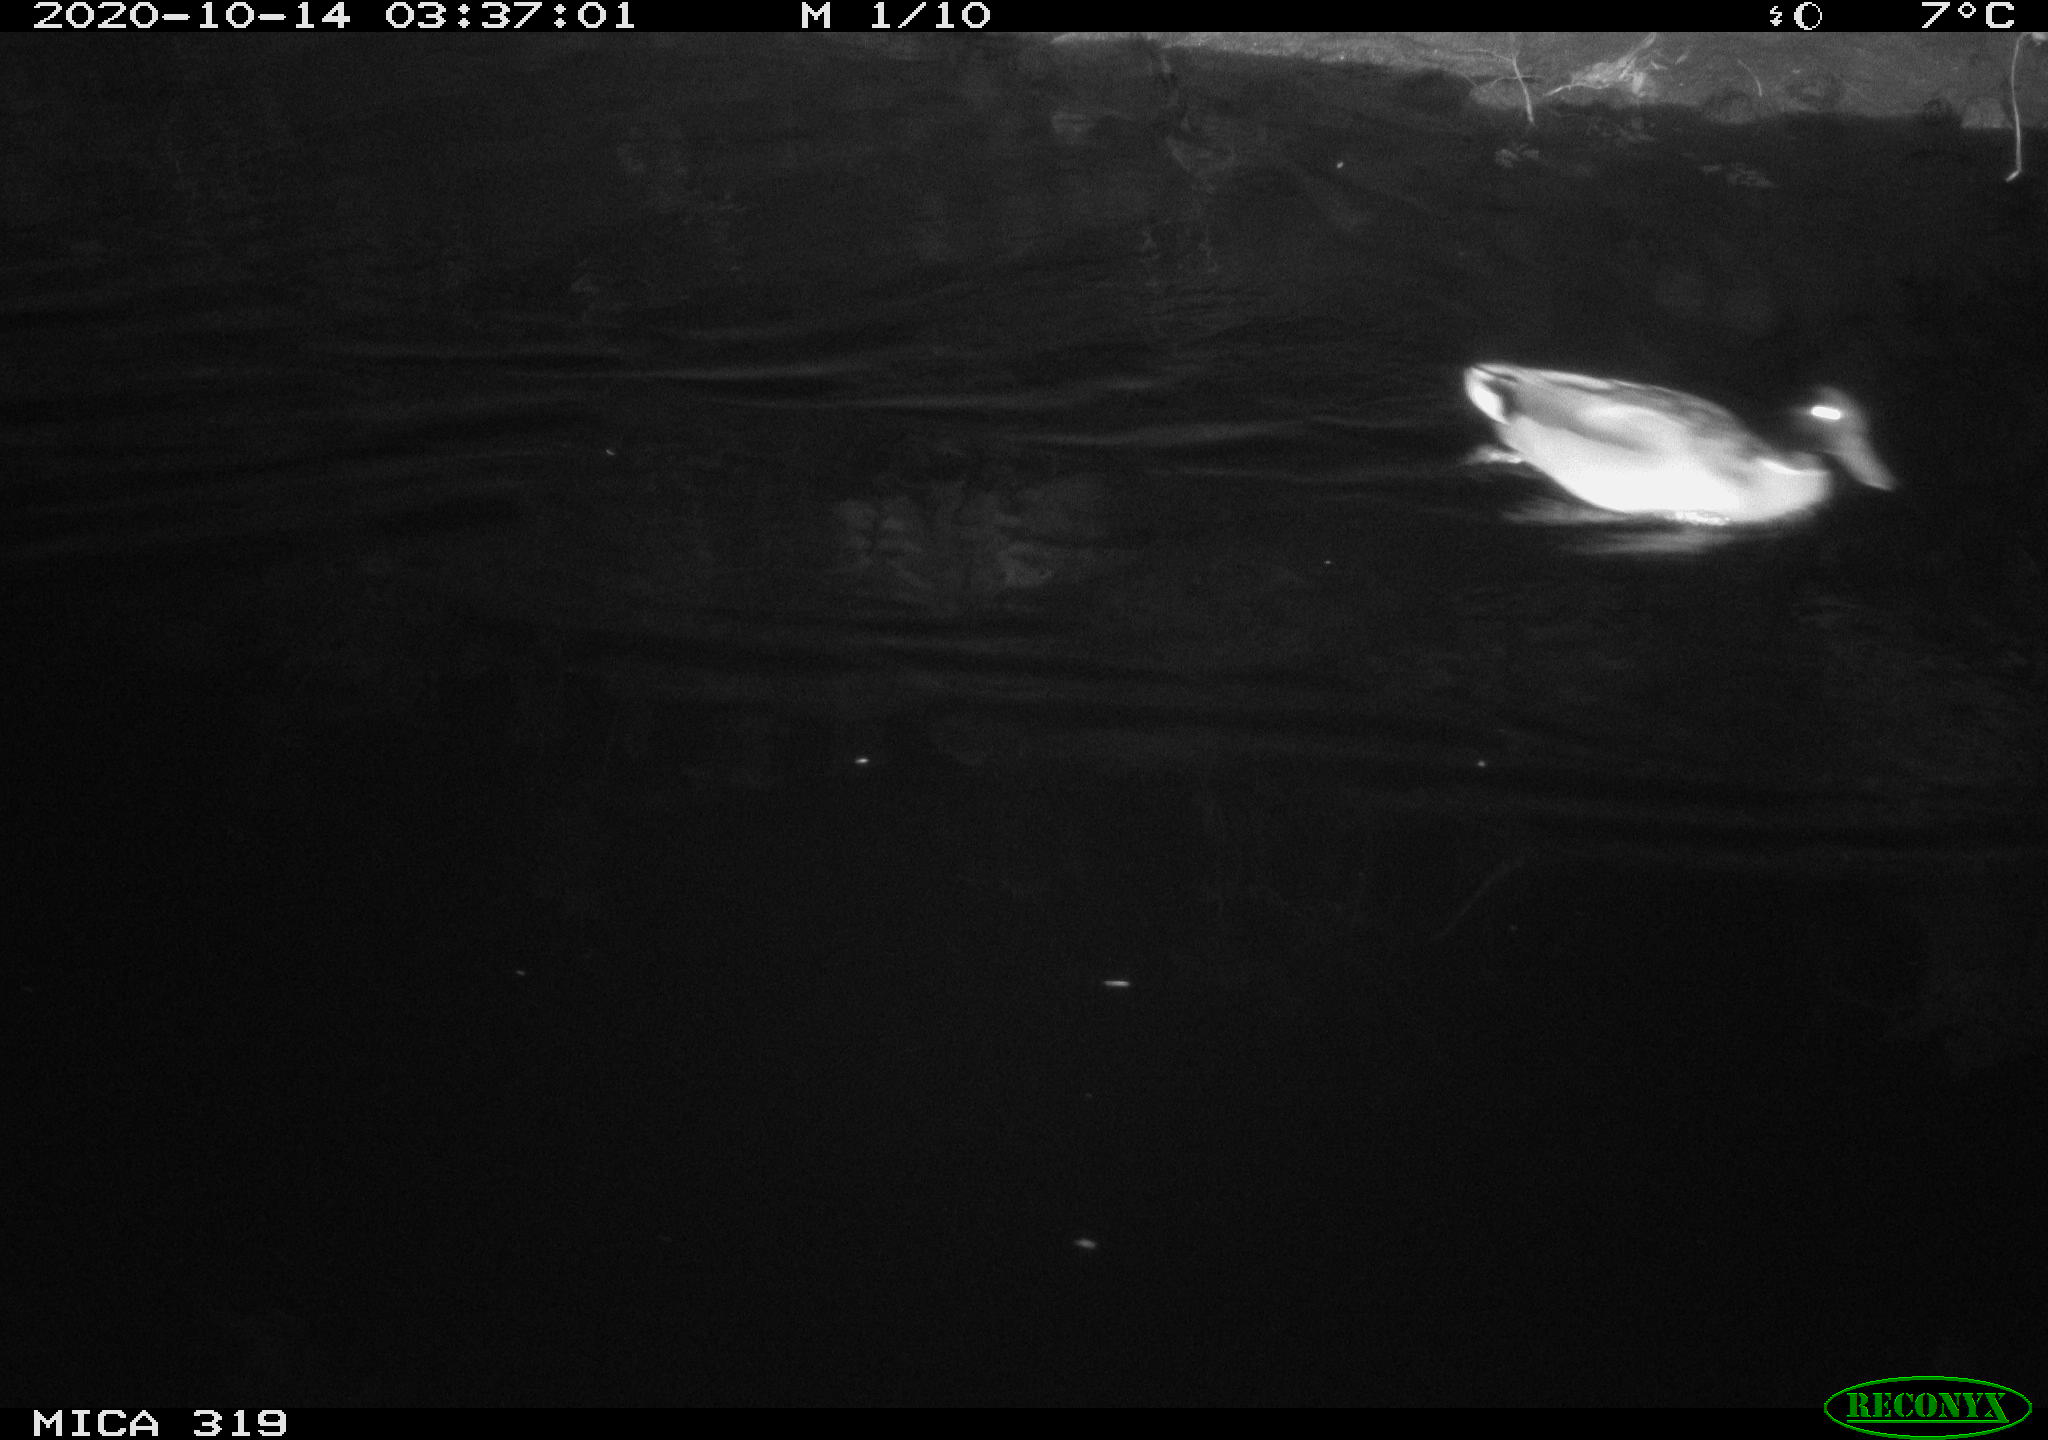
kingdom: Animalia
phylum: Chordata
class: Aves
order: Anseriformes
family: Anatidae
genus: Anas
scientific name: Anas platyrhynchos
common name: Mallard
